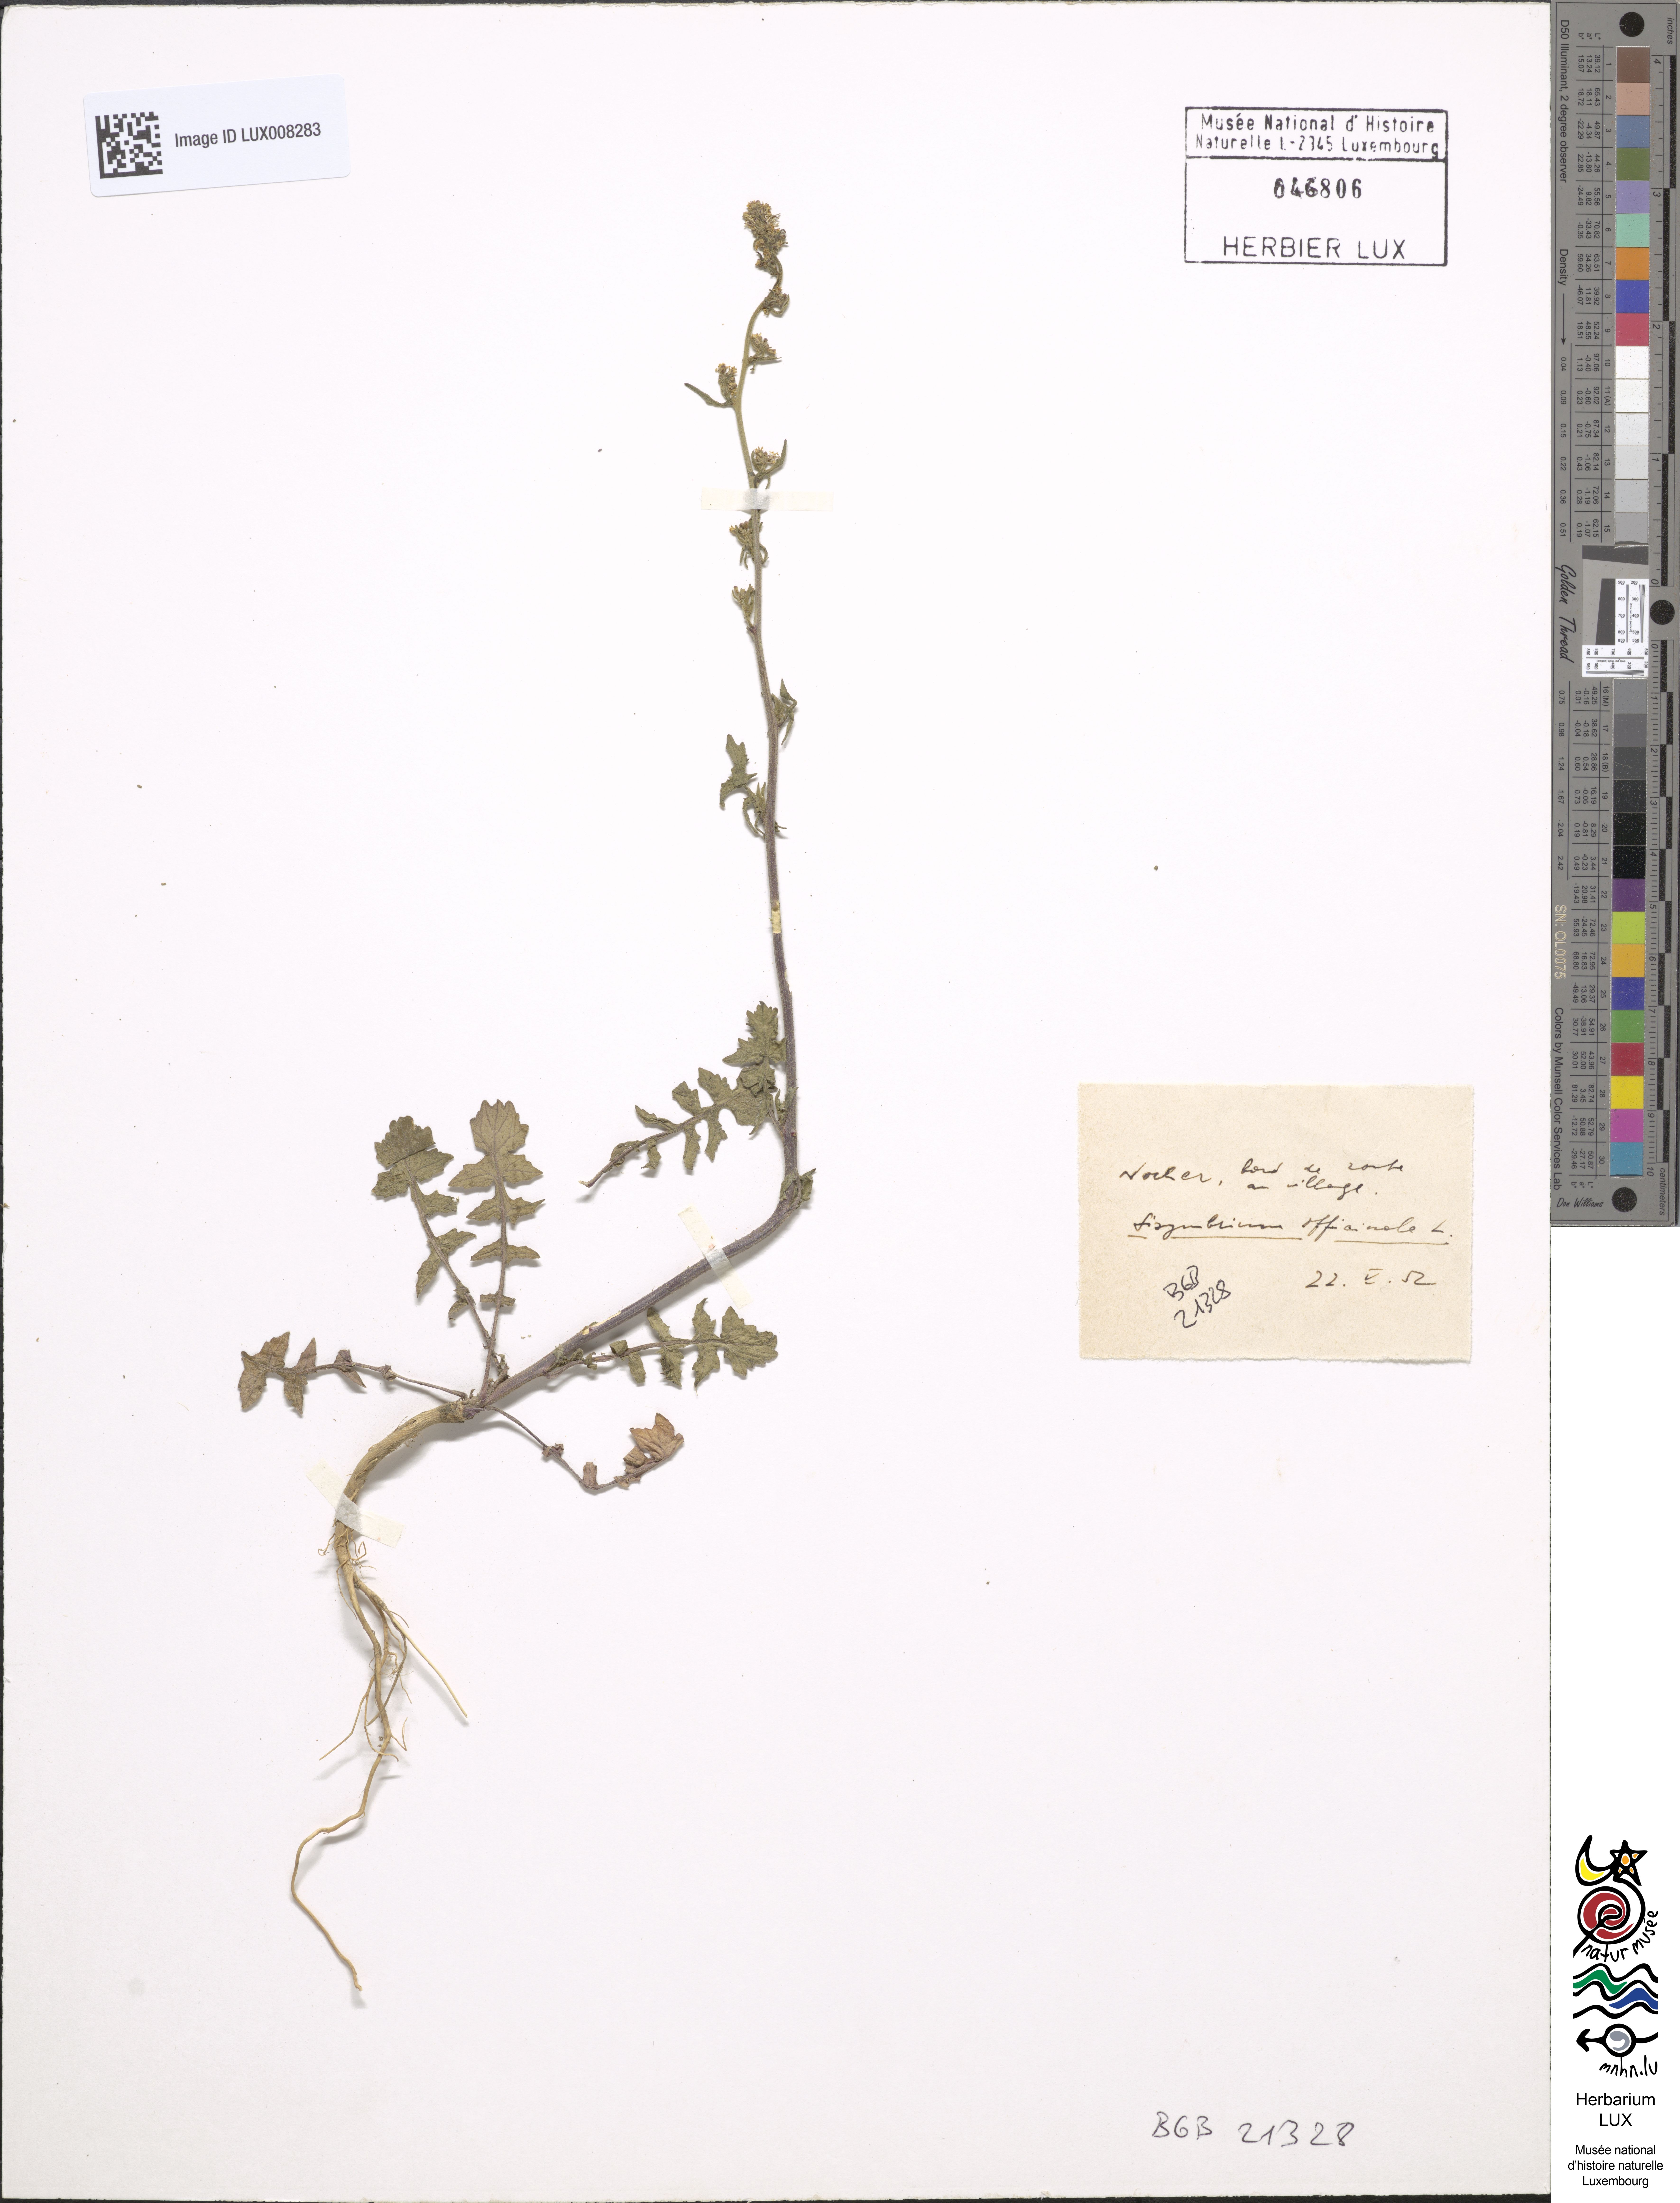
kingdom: Plantae
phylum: Tracheophyta
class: Magnoliopsida
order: Brassicales
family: Brassicaceae
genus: Sisymbrium
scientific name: Sisymbrium officinale
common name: Hedge mustard
